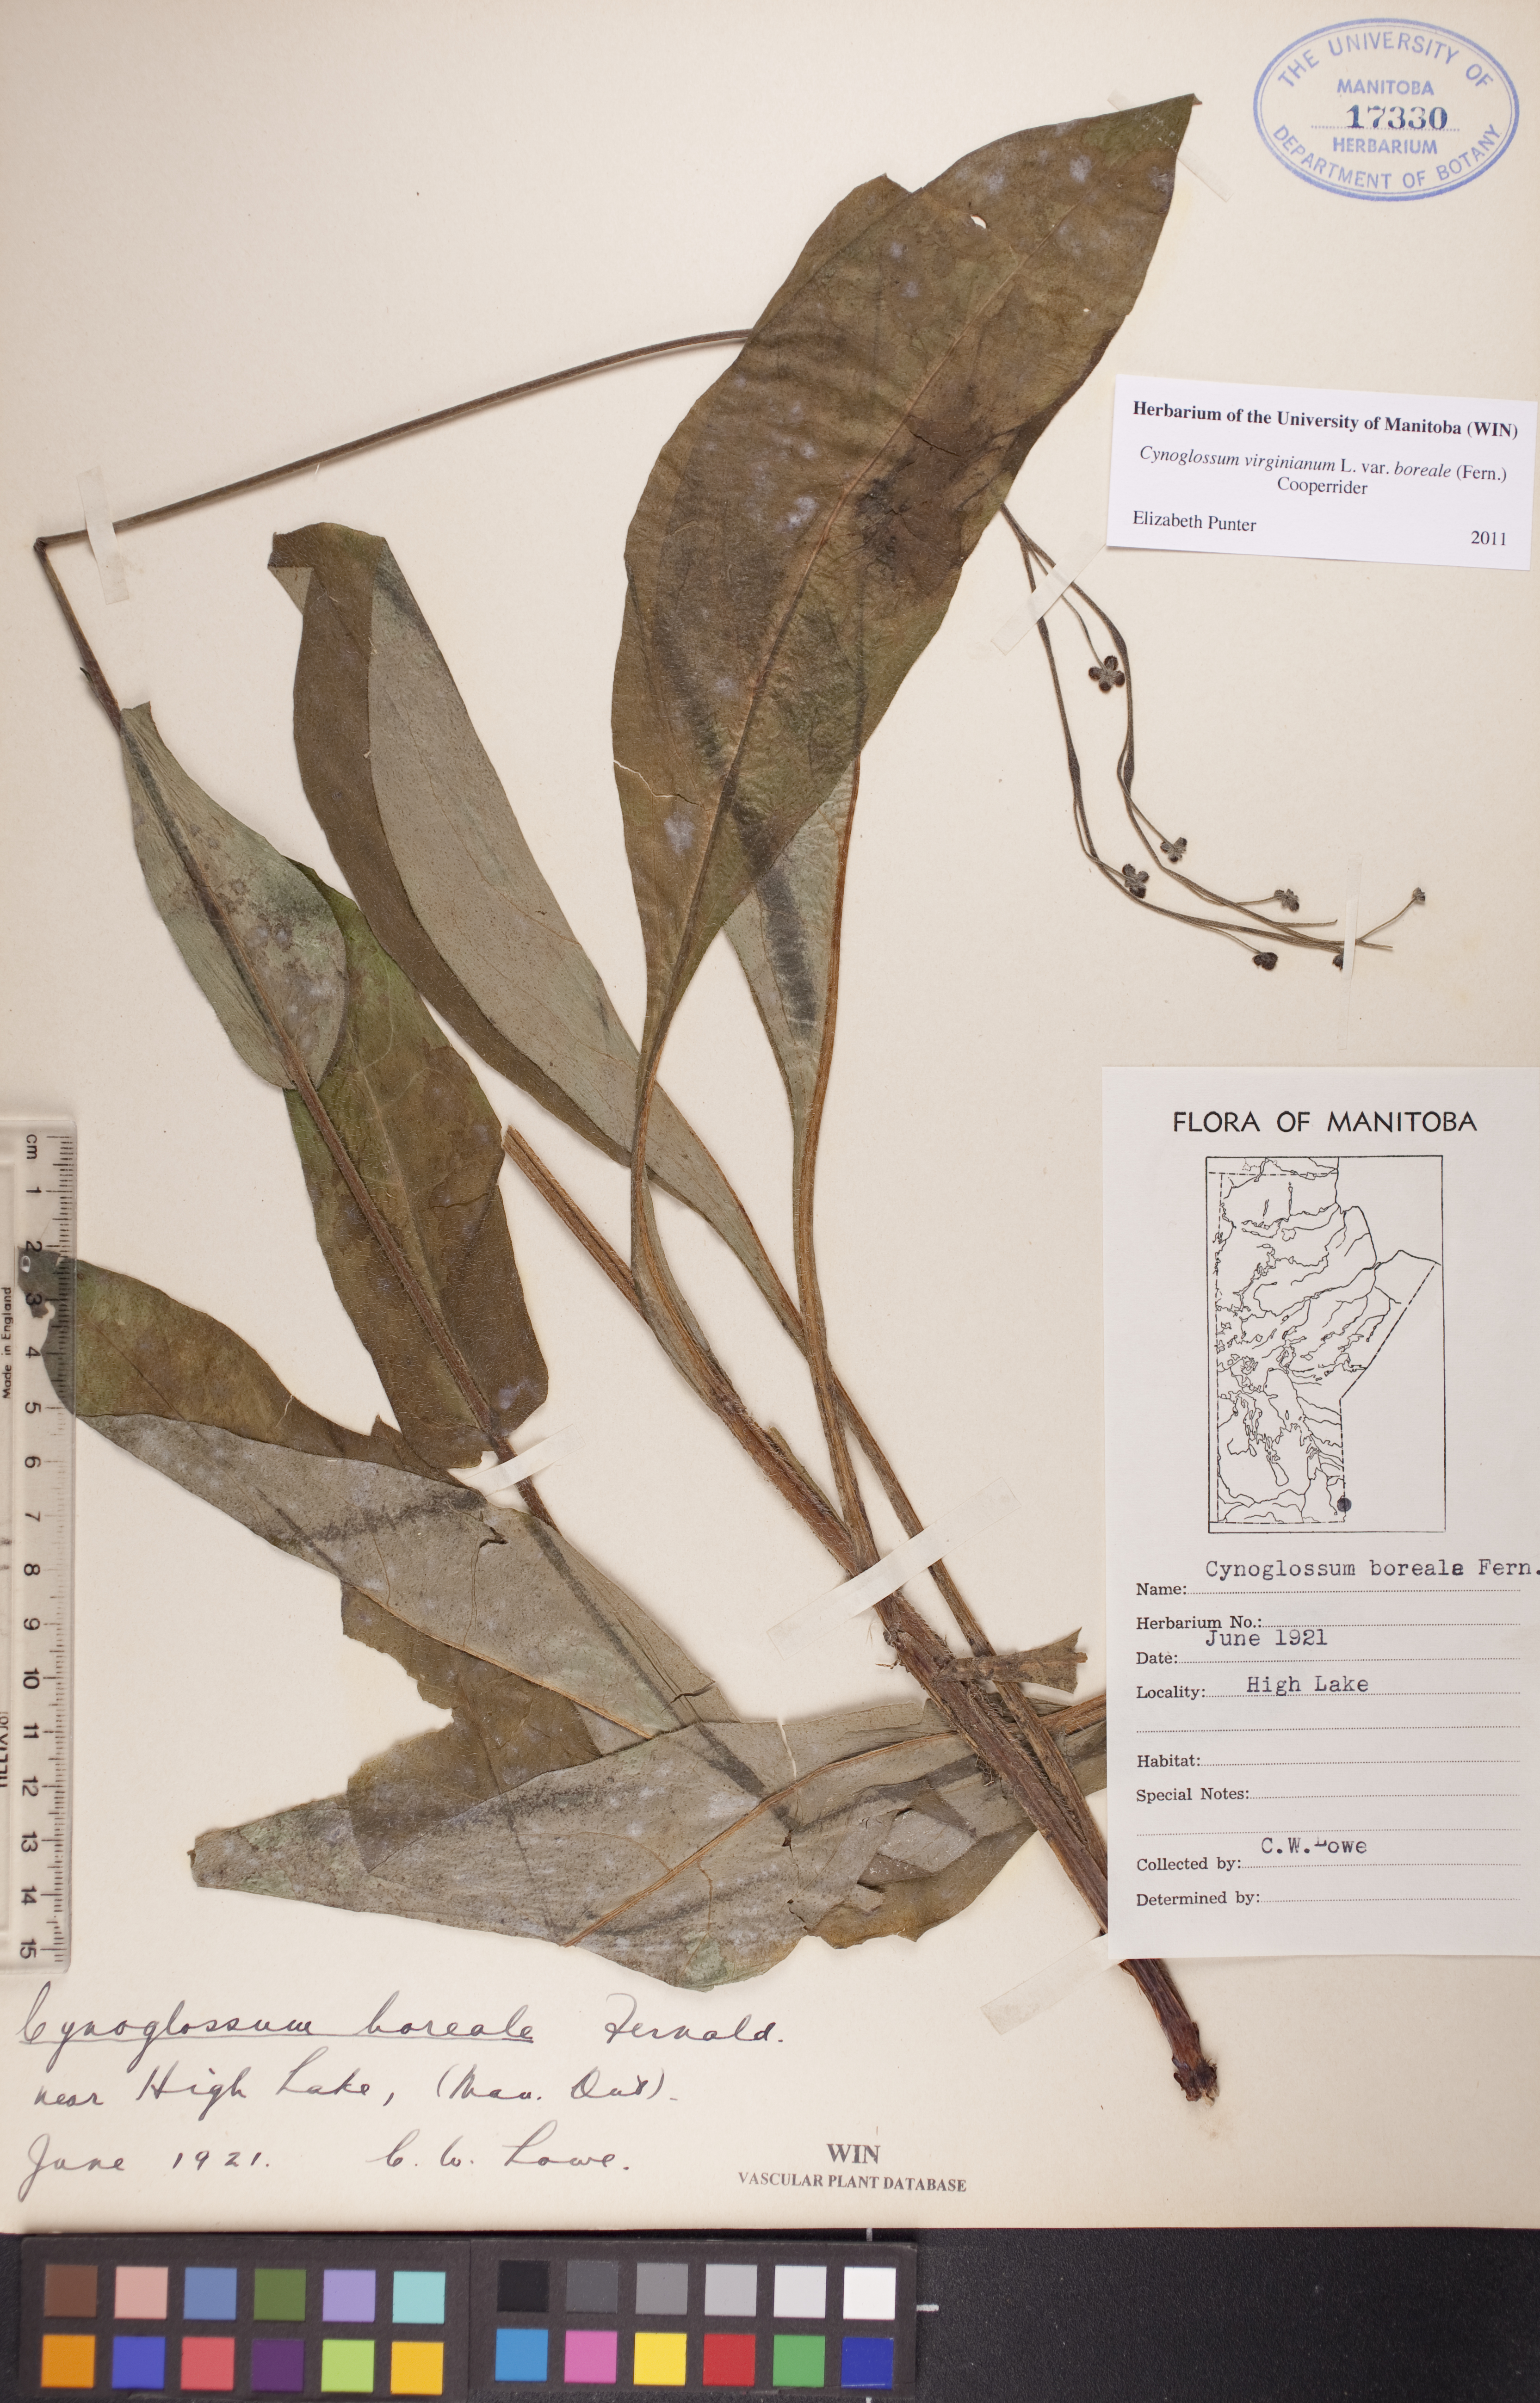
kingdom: Plantae
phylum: Tracheophyta
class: Magnoliopsida
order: Boraginales
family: Boraginaceae
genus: Andersonglossum
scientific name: Andersonglossum boreale
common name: Northern hound's-tongue
